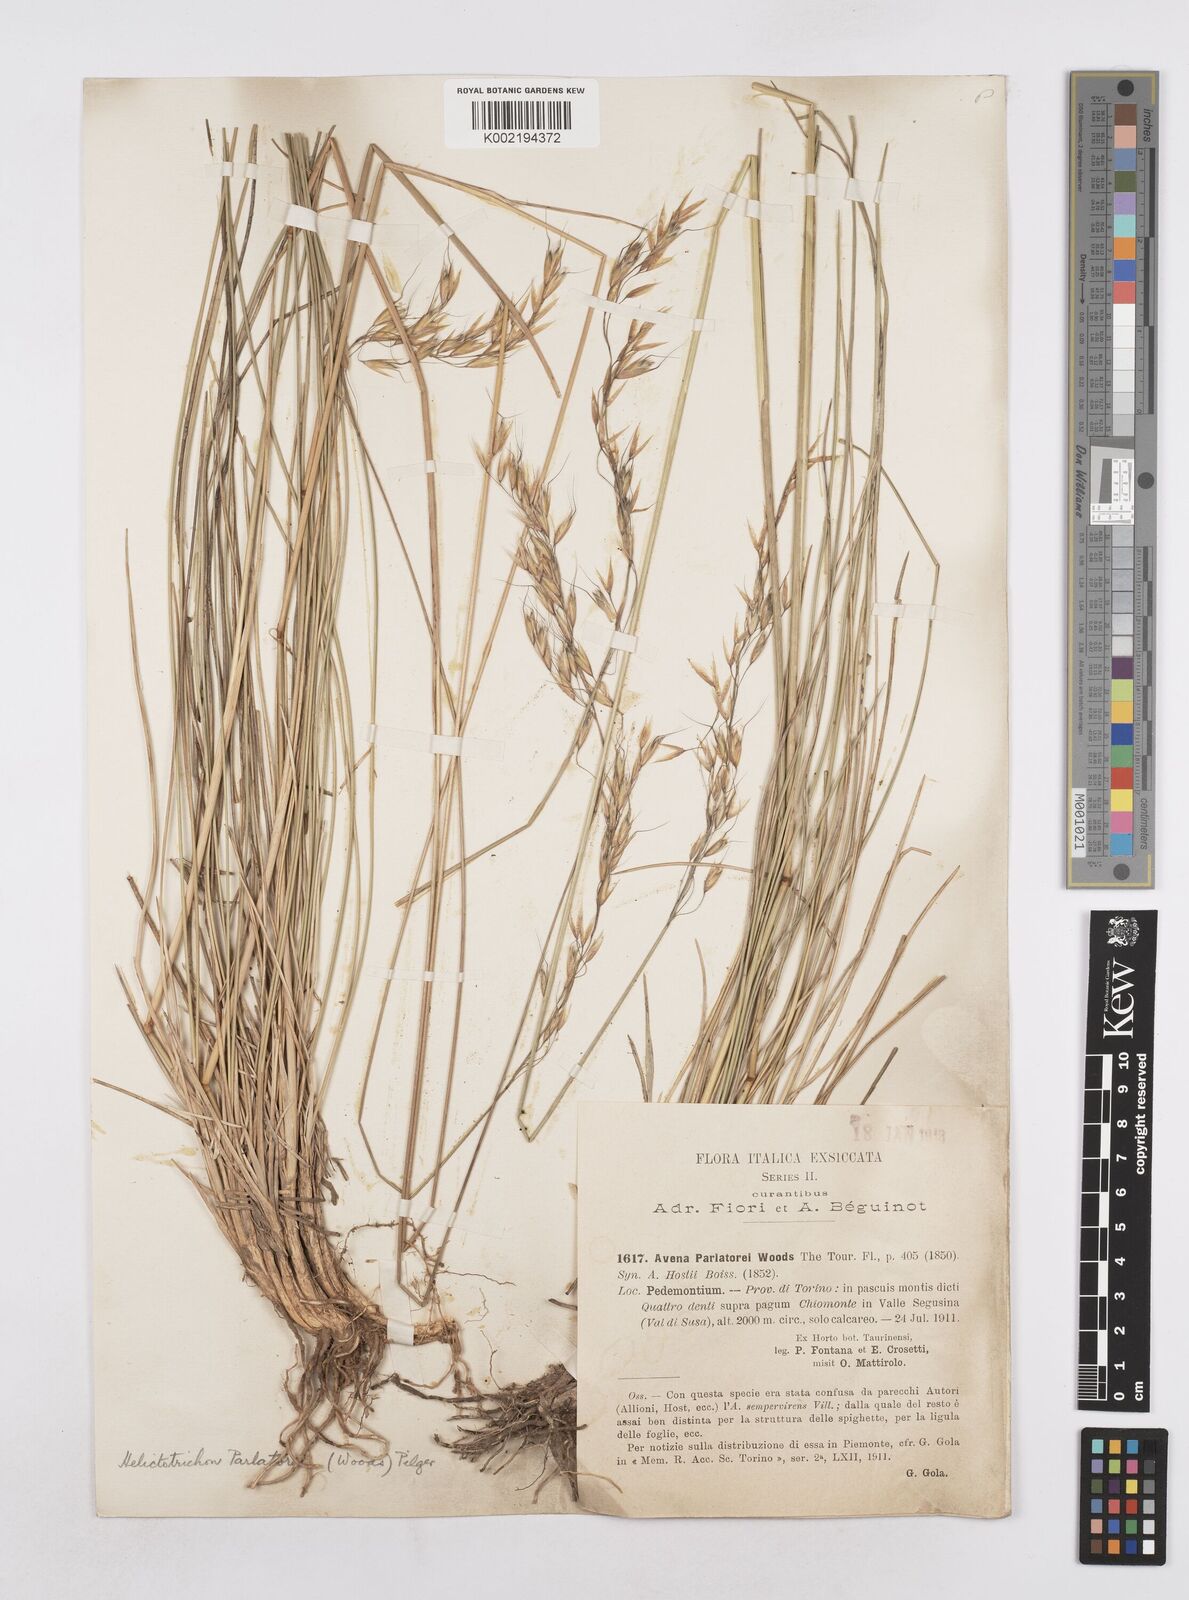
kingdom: Plantae
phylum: Tracheophyta
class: Liliopsida
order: Poales
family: Poaceae
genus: Helictotrichon
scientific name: Helictotrichon parlatorei
